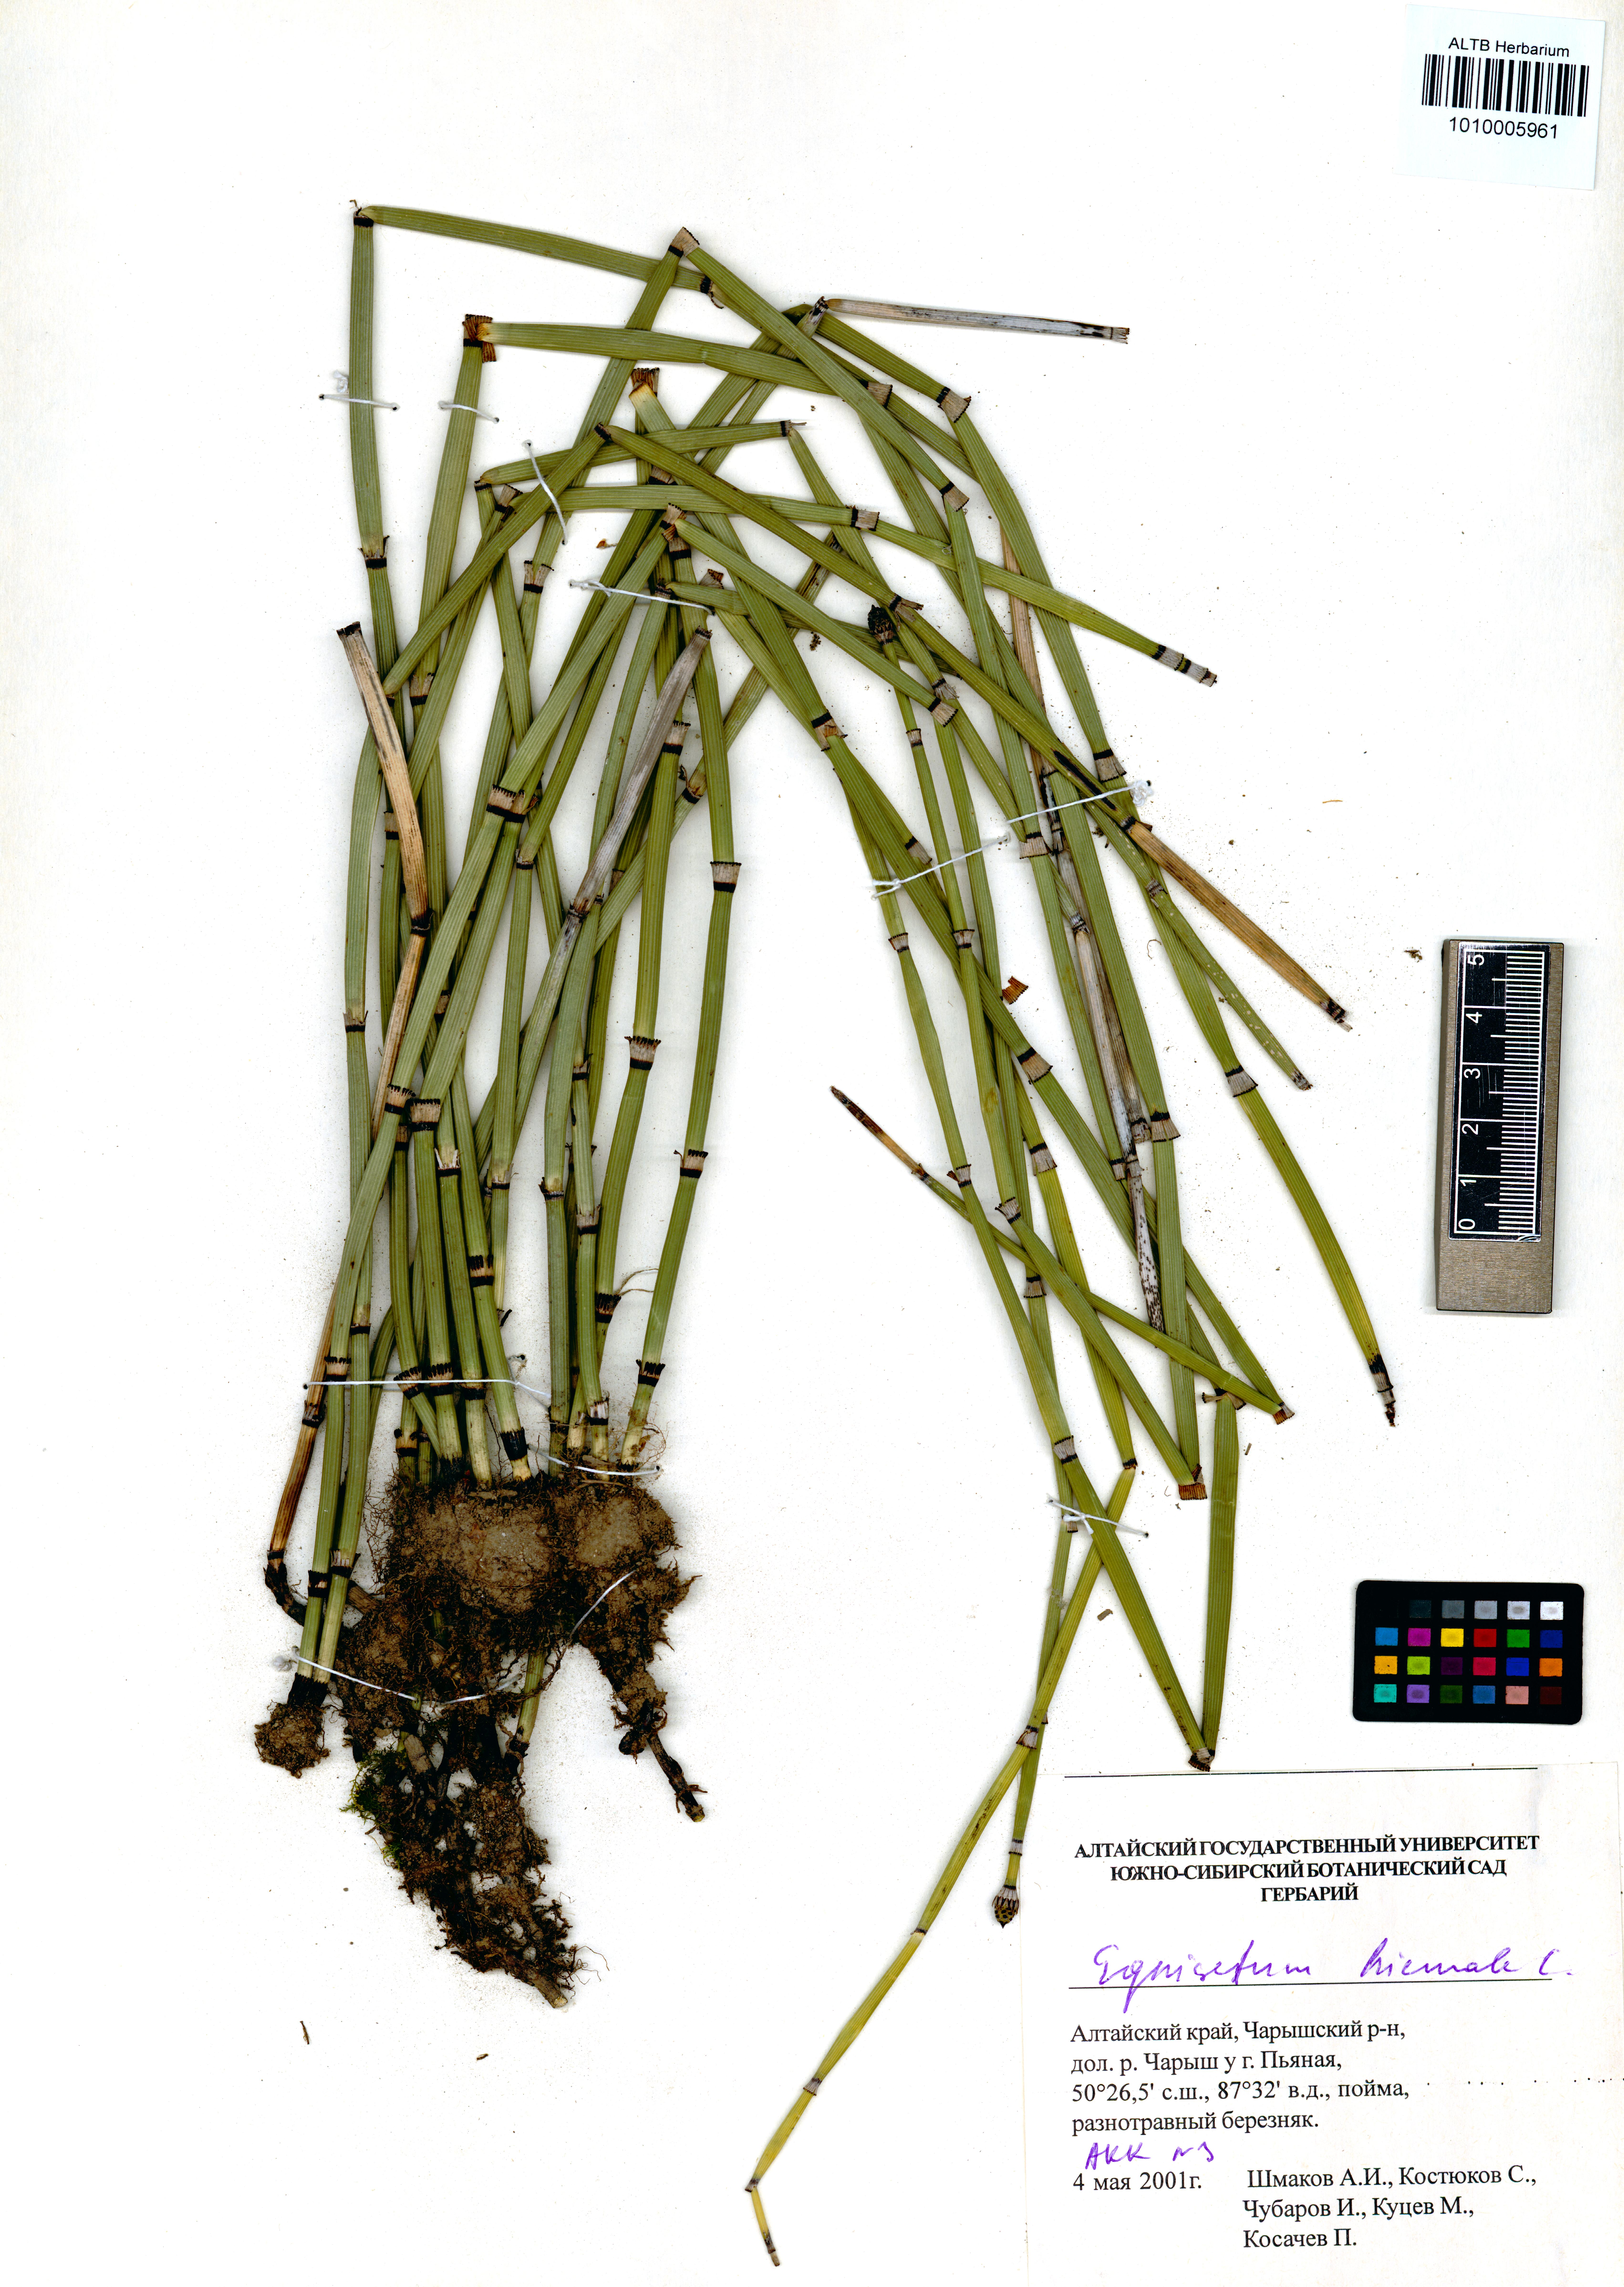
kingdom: Plantae
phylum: Tracheophyta
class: Polypodiopsida
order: Equisetales
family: Equisetaceae
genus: Equisetum
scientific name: Equisetum hyemale
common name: Rough horsetail
